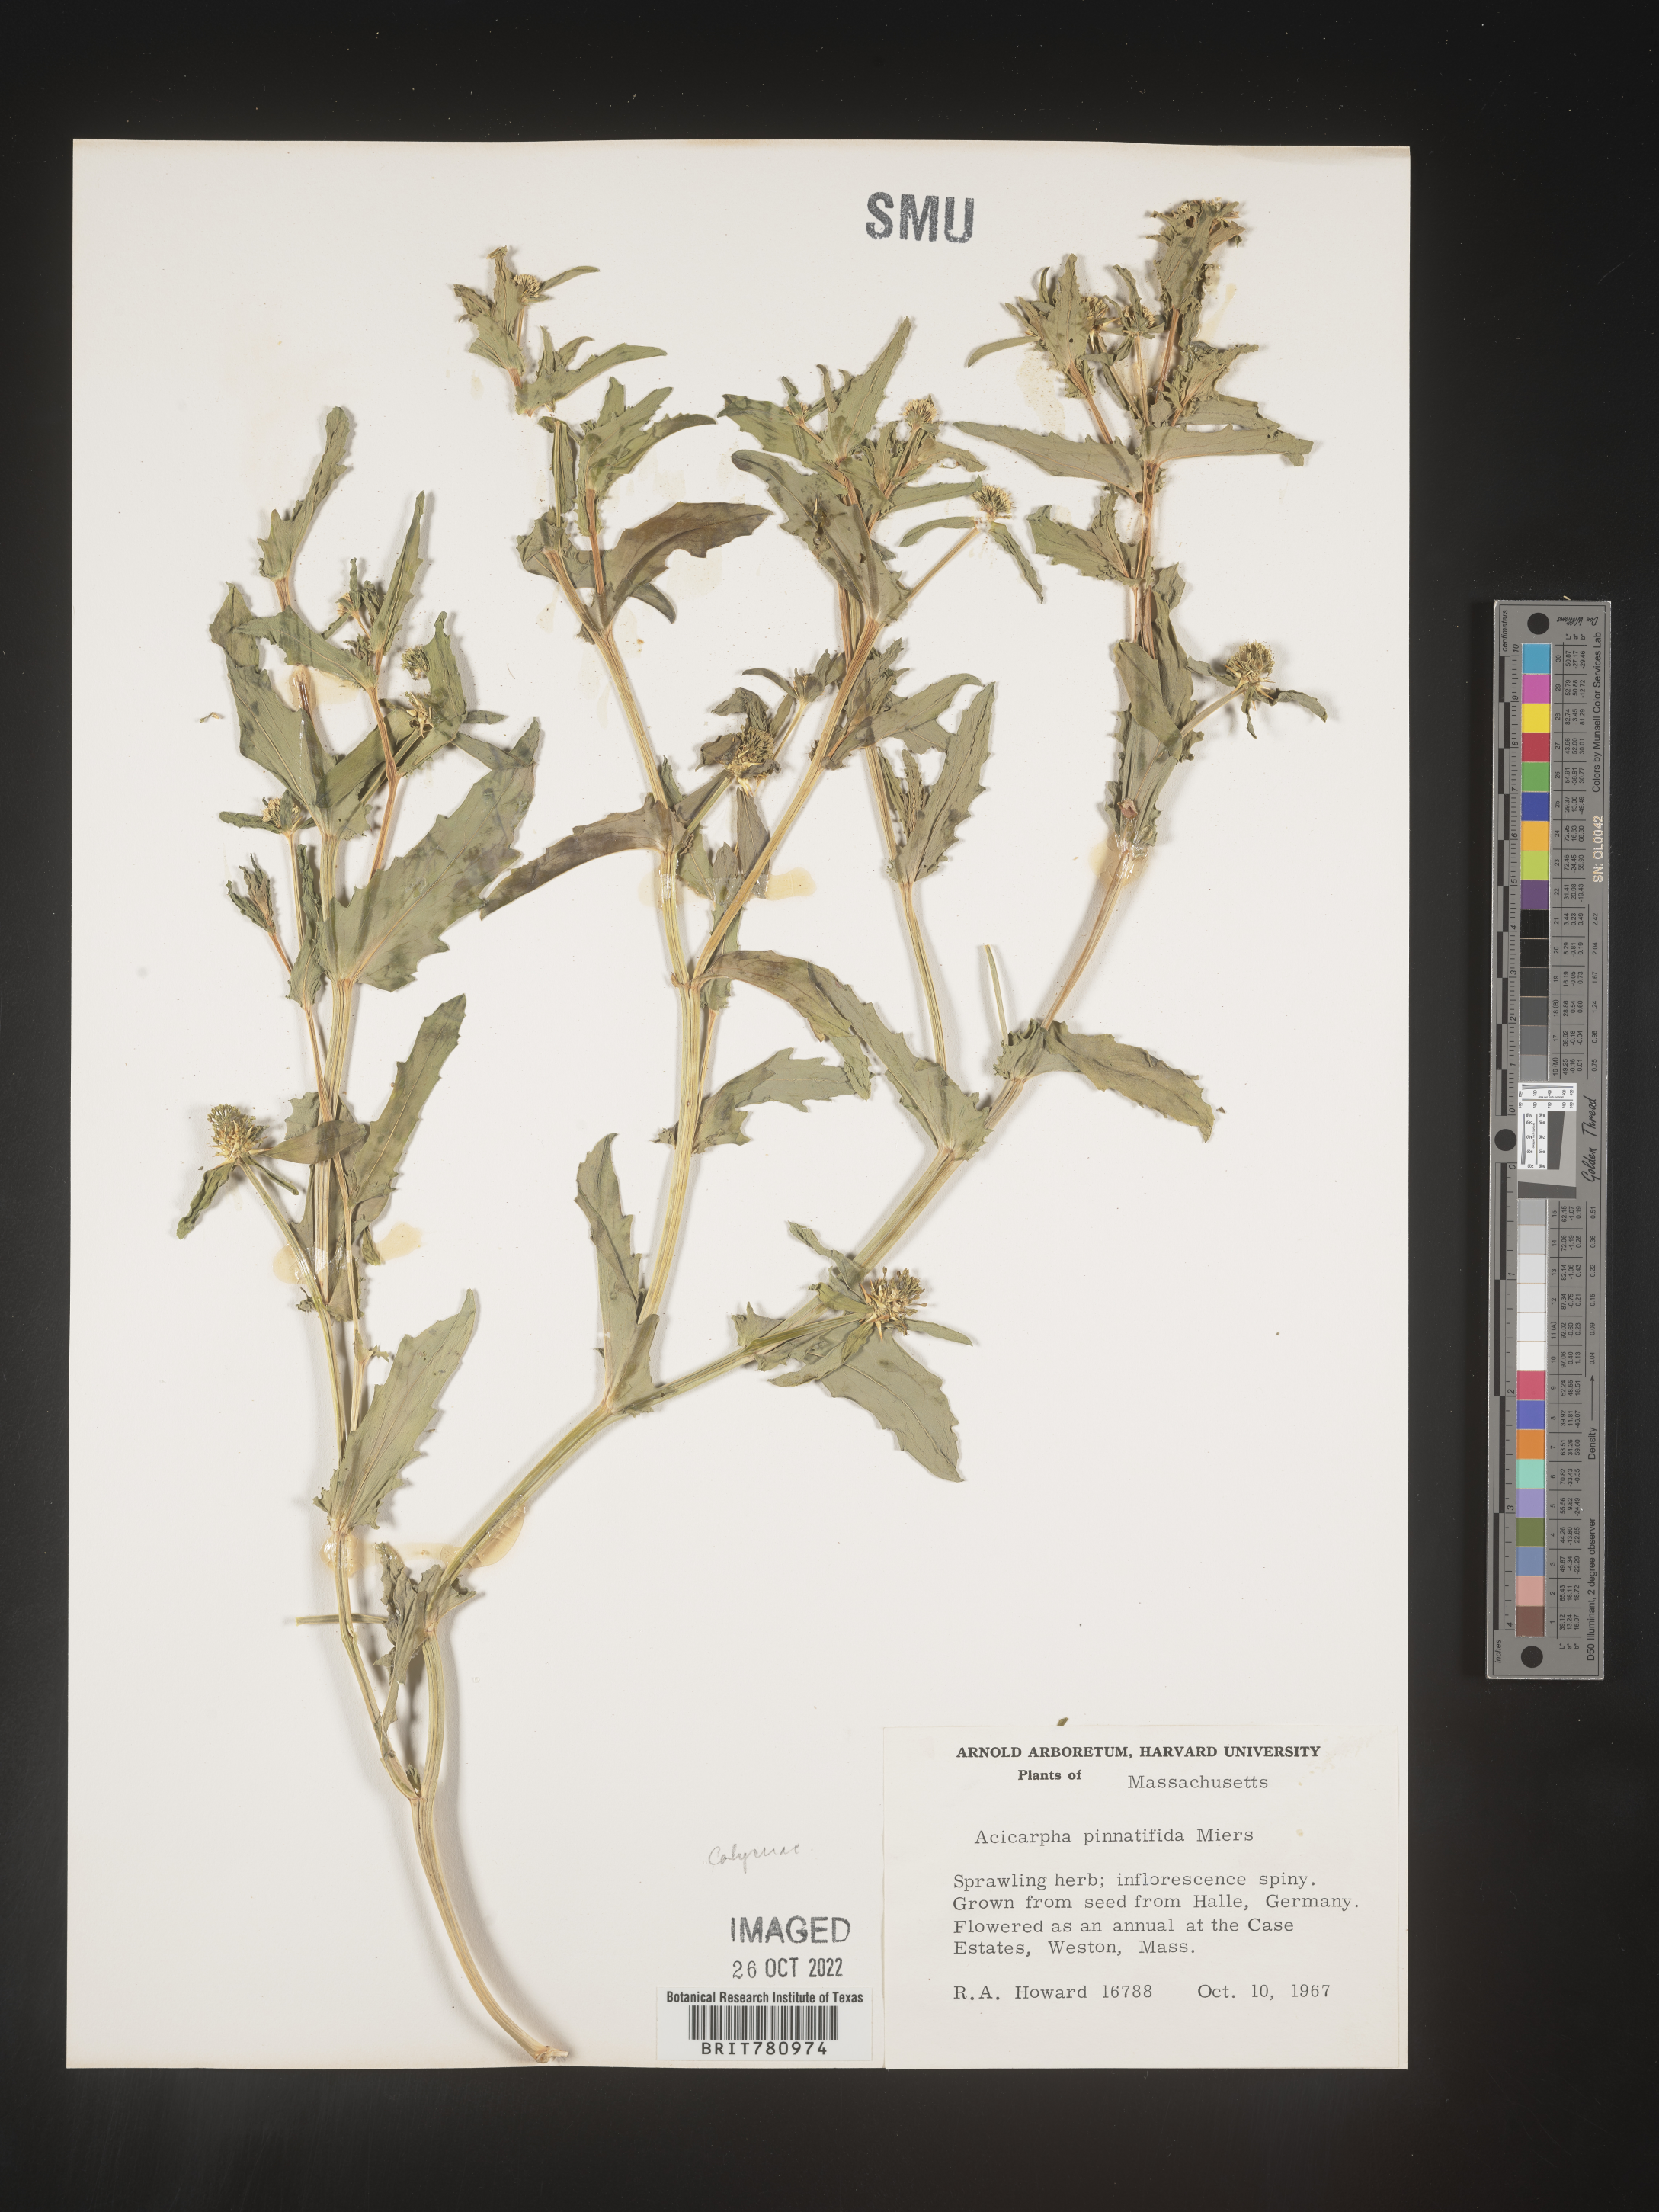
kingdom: Plantae
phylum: Tracheophyta
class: Magnoliopsida
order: Asterales
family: Calyceraceae
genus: Acicarpha
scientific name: Acicarpha
